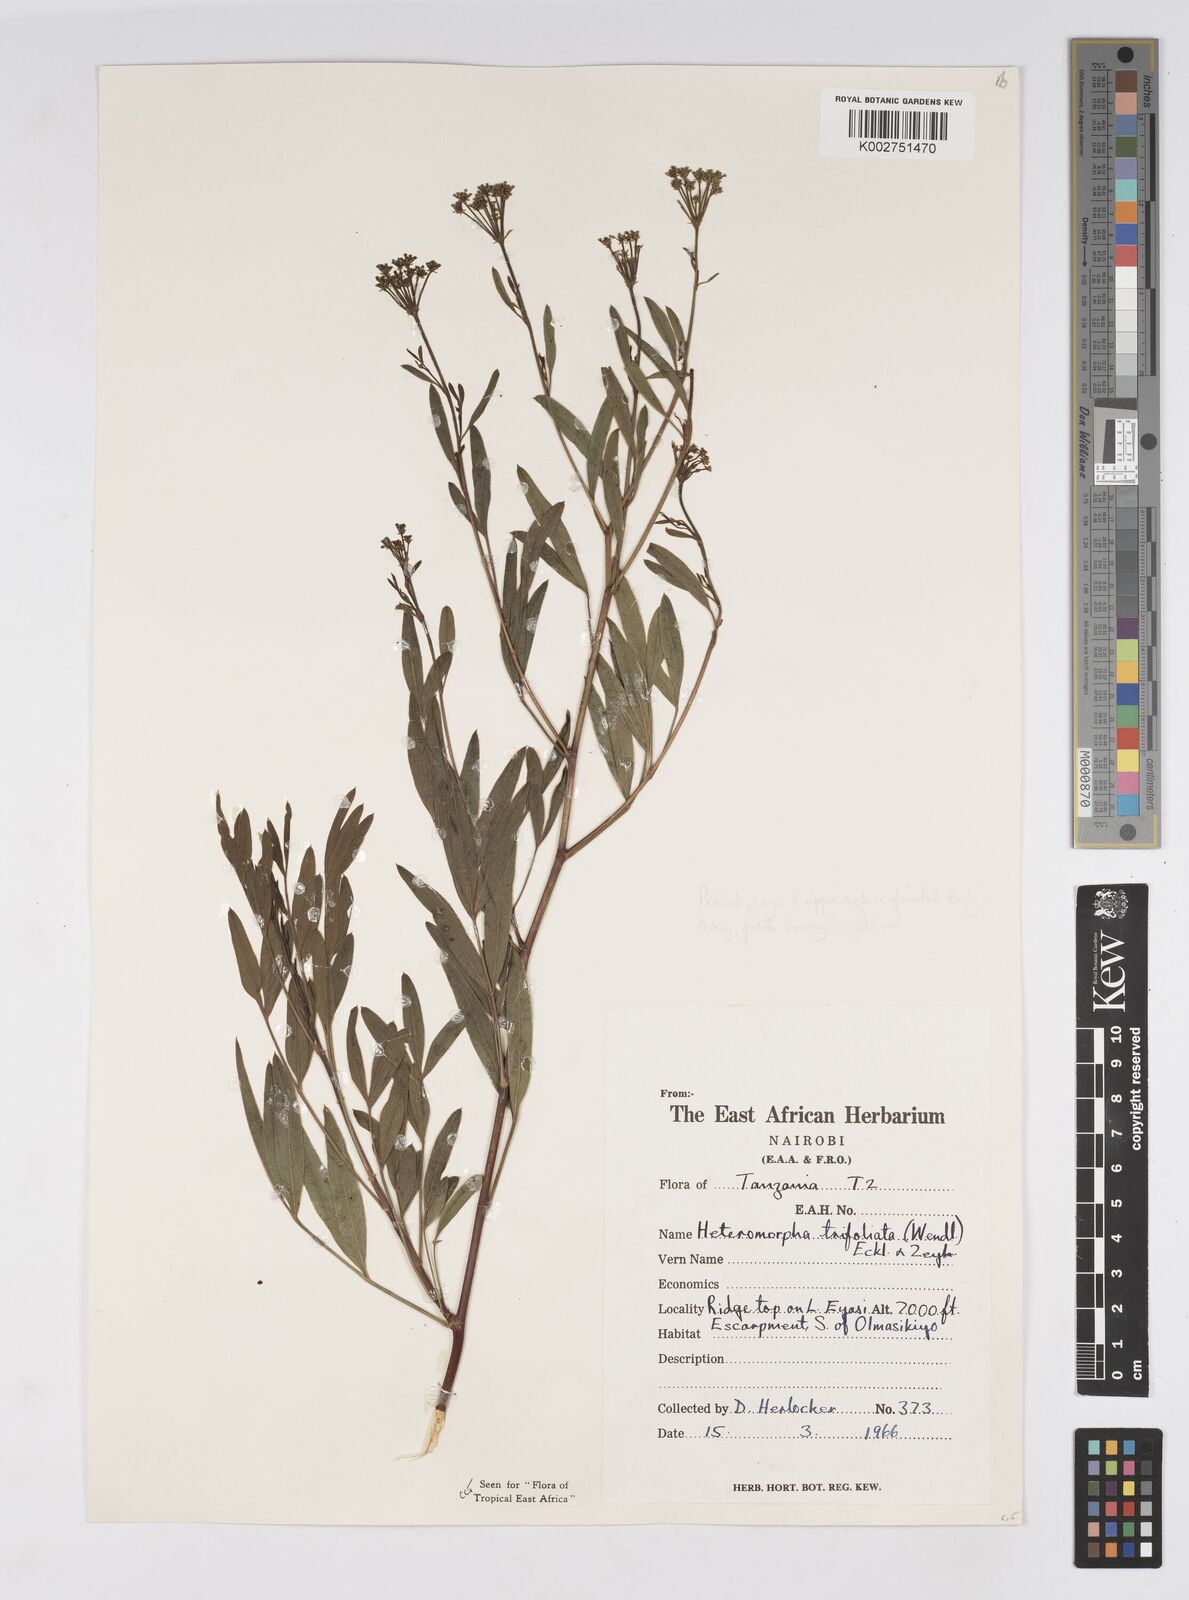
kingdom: Plantae
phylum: Tracheophyta
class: Magnoliopsida
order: Apiales
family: Apiaceae
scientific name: Apiaceae
